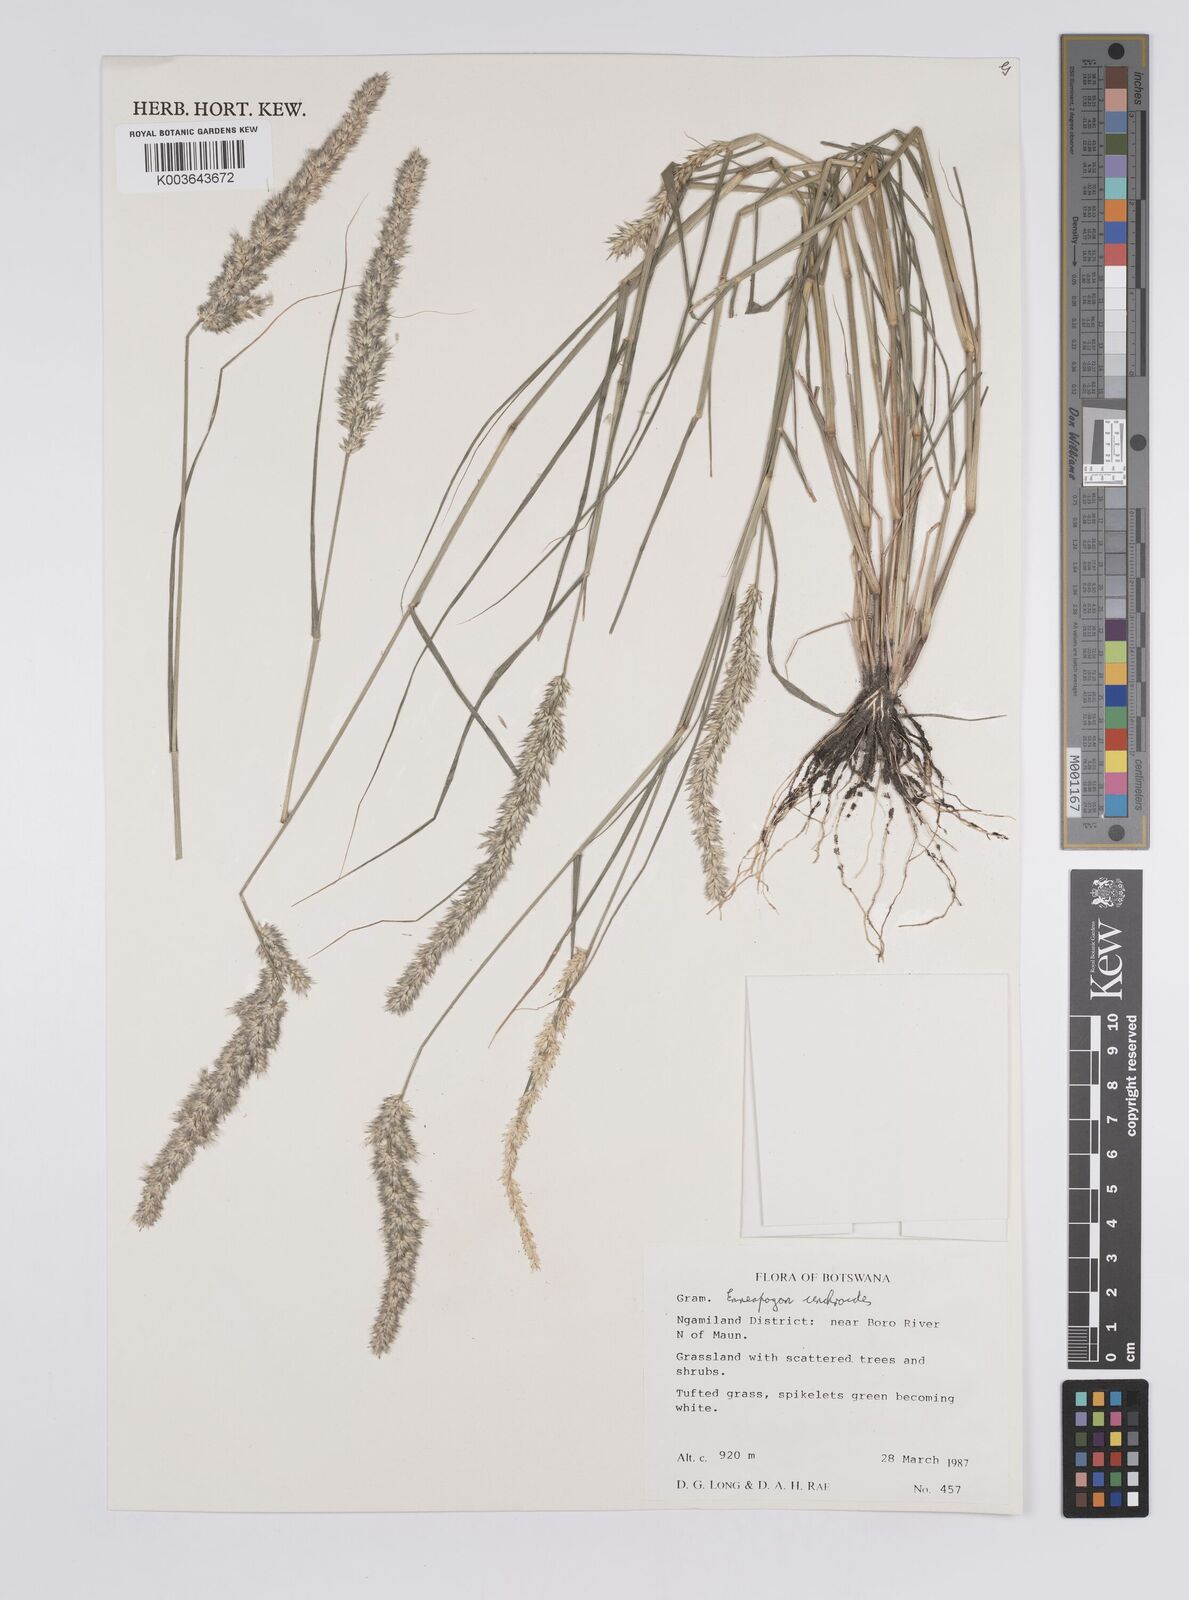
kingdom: Plantae
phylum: Tracheophyta
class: Liliopsida
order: Poales
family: Poaceae
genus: Enneapogon
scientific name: Enneapogon cenchroides
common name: Soft feather pappusgrass
